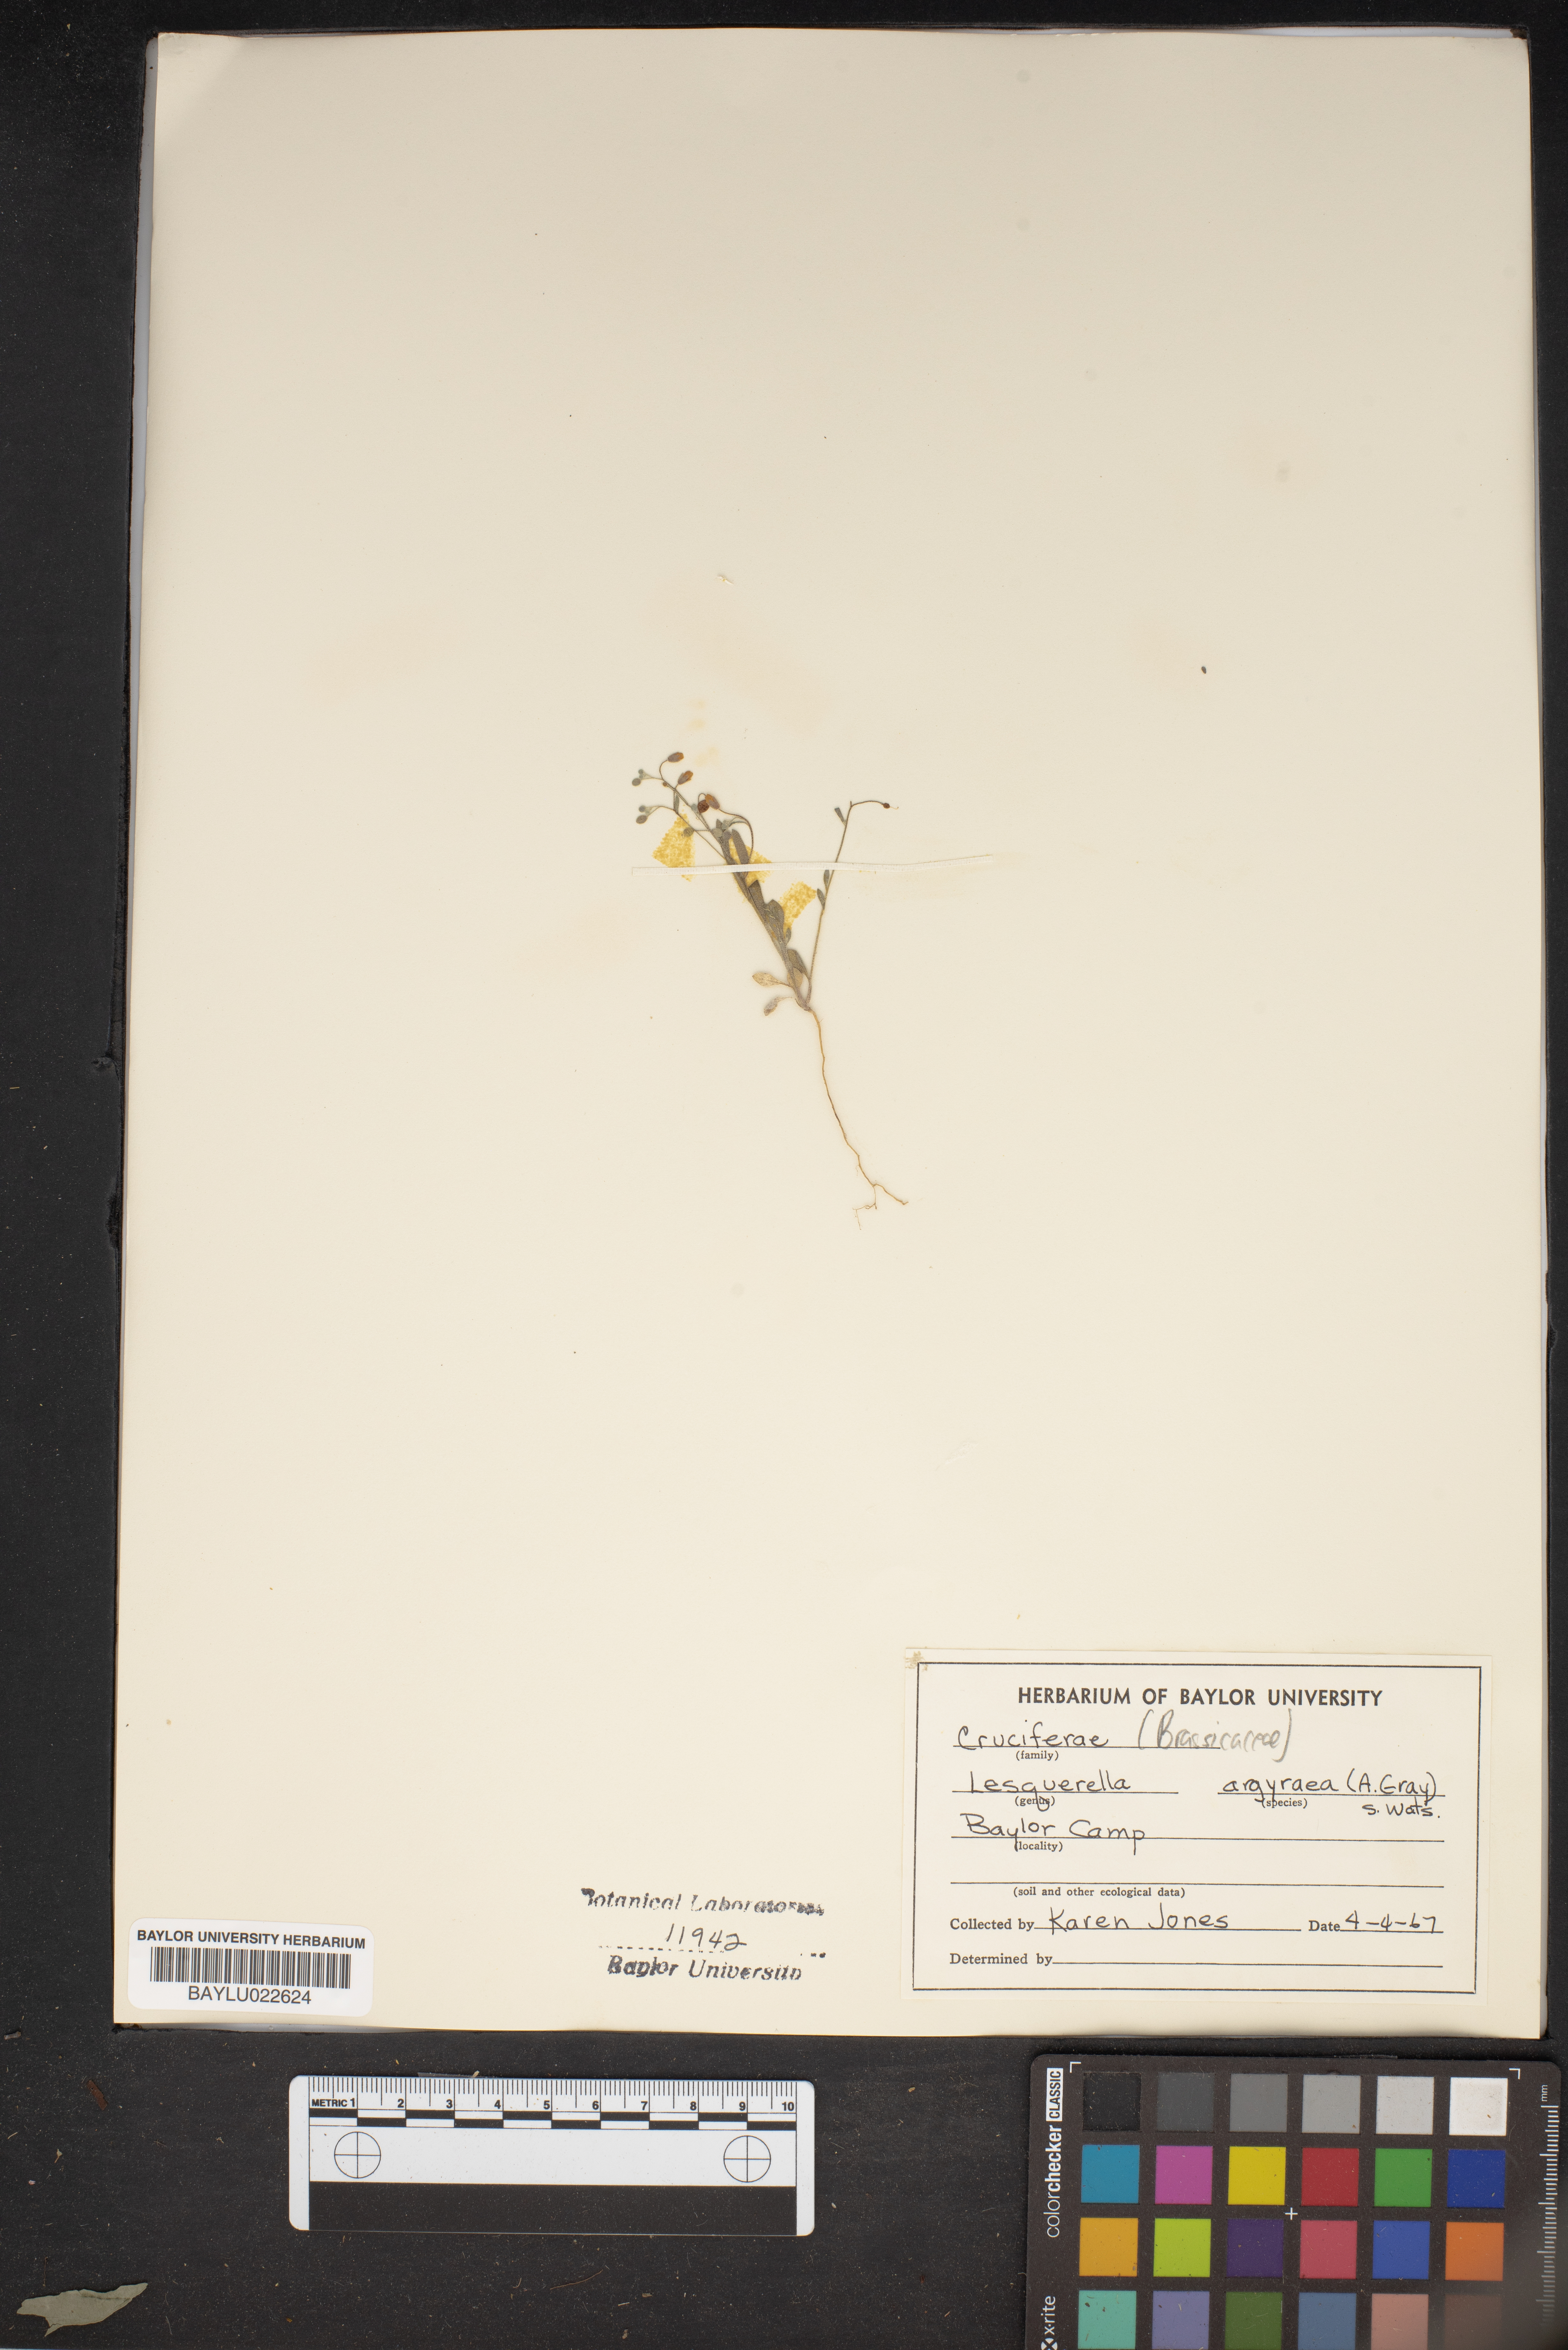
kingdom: Plantae
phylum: Tracheophyta
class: Magnoliopsida
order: Brassicales
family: Brassicaceae
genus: Physaria
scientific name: Physaria argyraea
